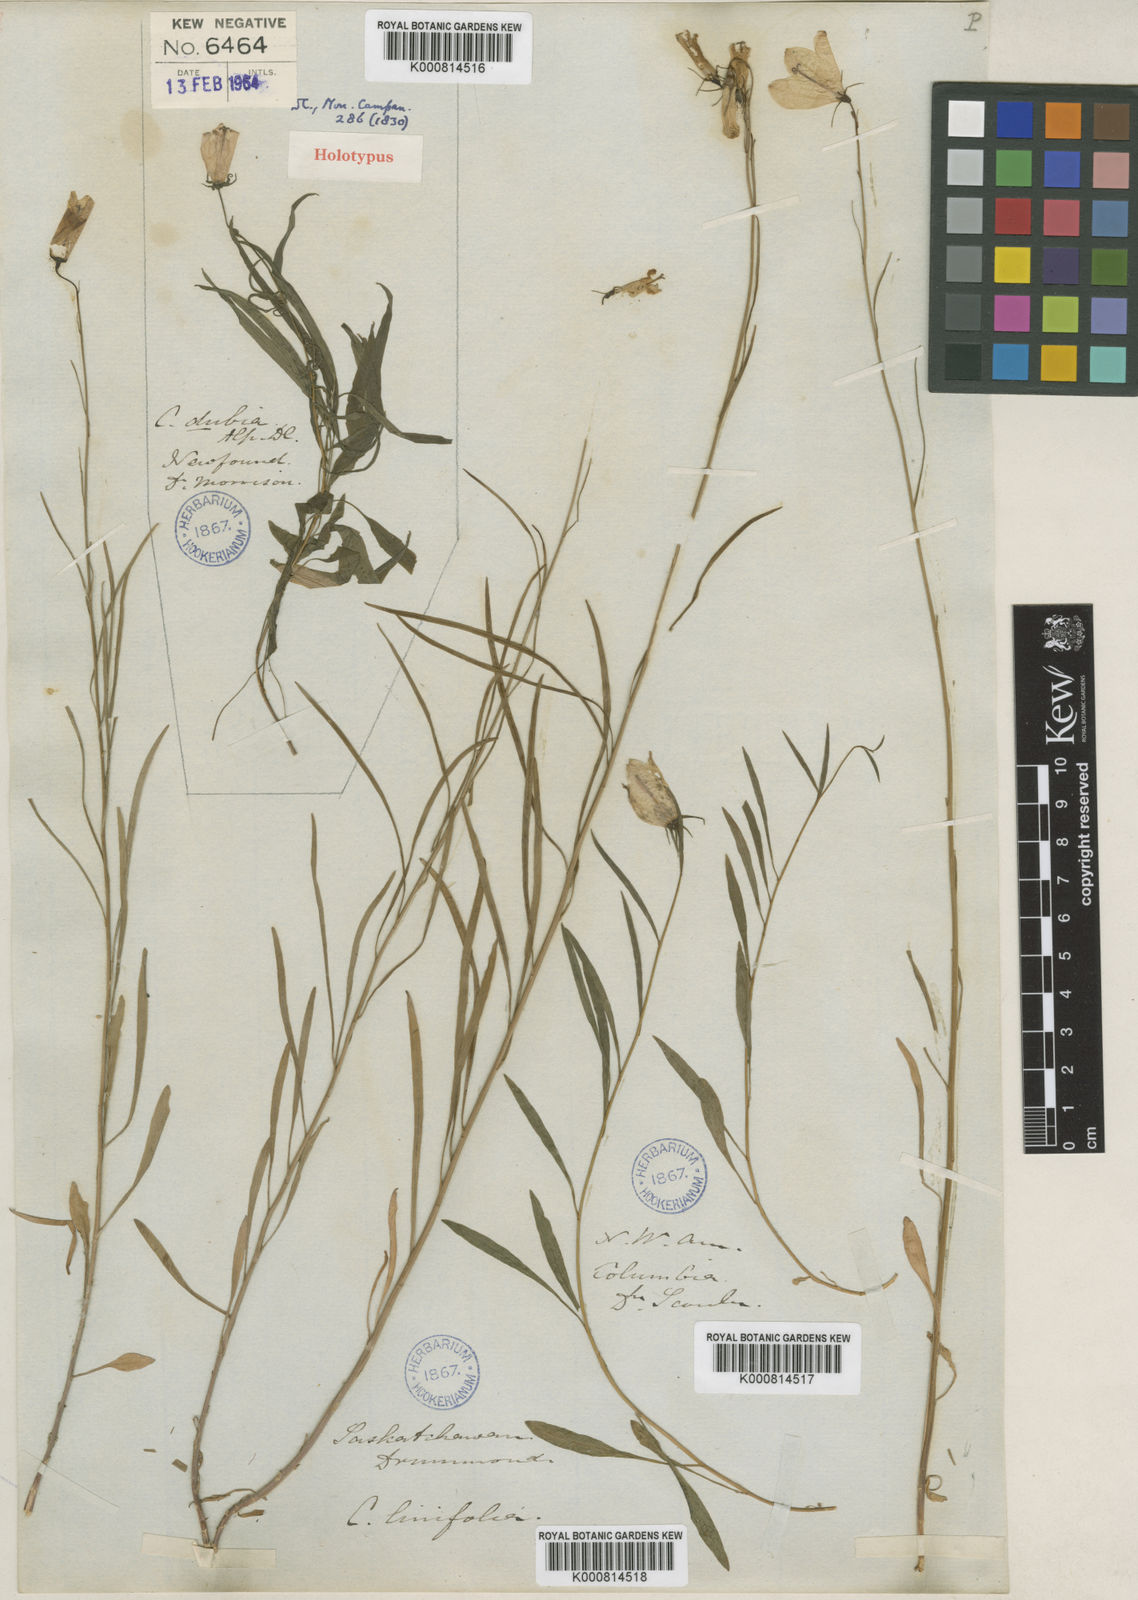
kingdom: Plantae
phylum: Tracheophyta
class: Magnoliopsida
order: Asterales
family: Campanulaceae
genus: Campanula
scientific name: Campanula rotundifolia
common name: Harebell
